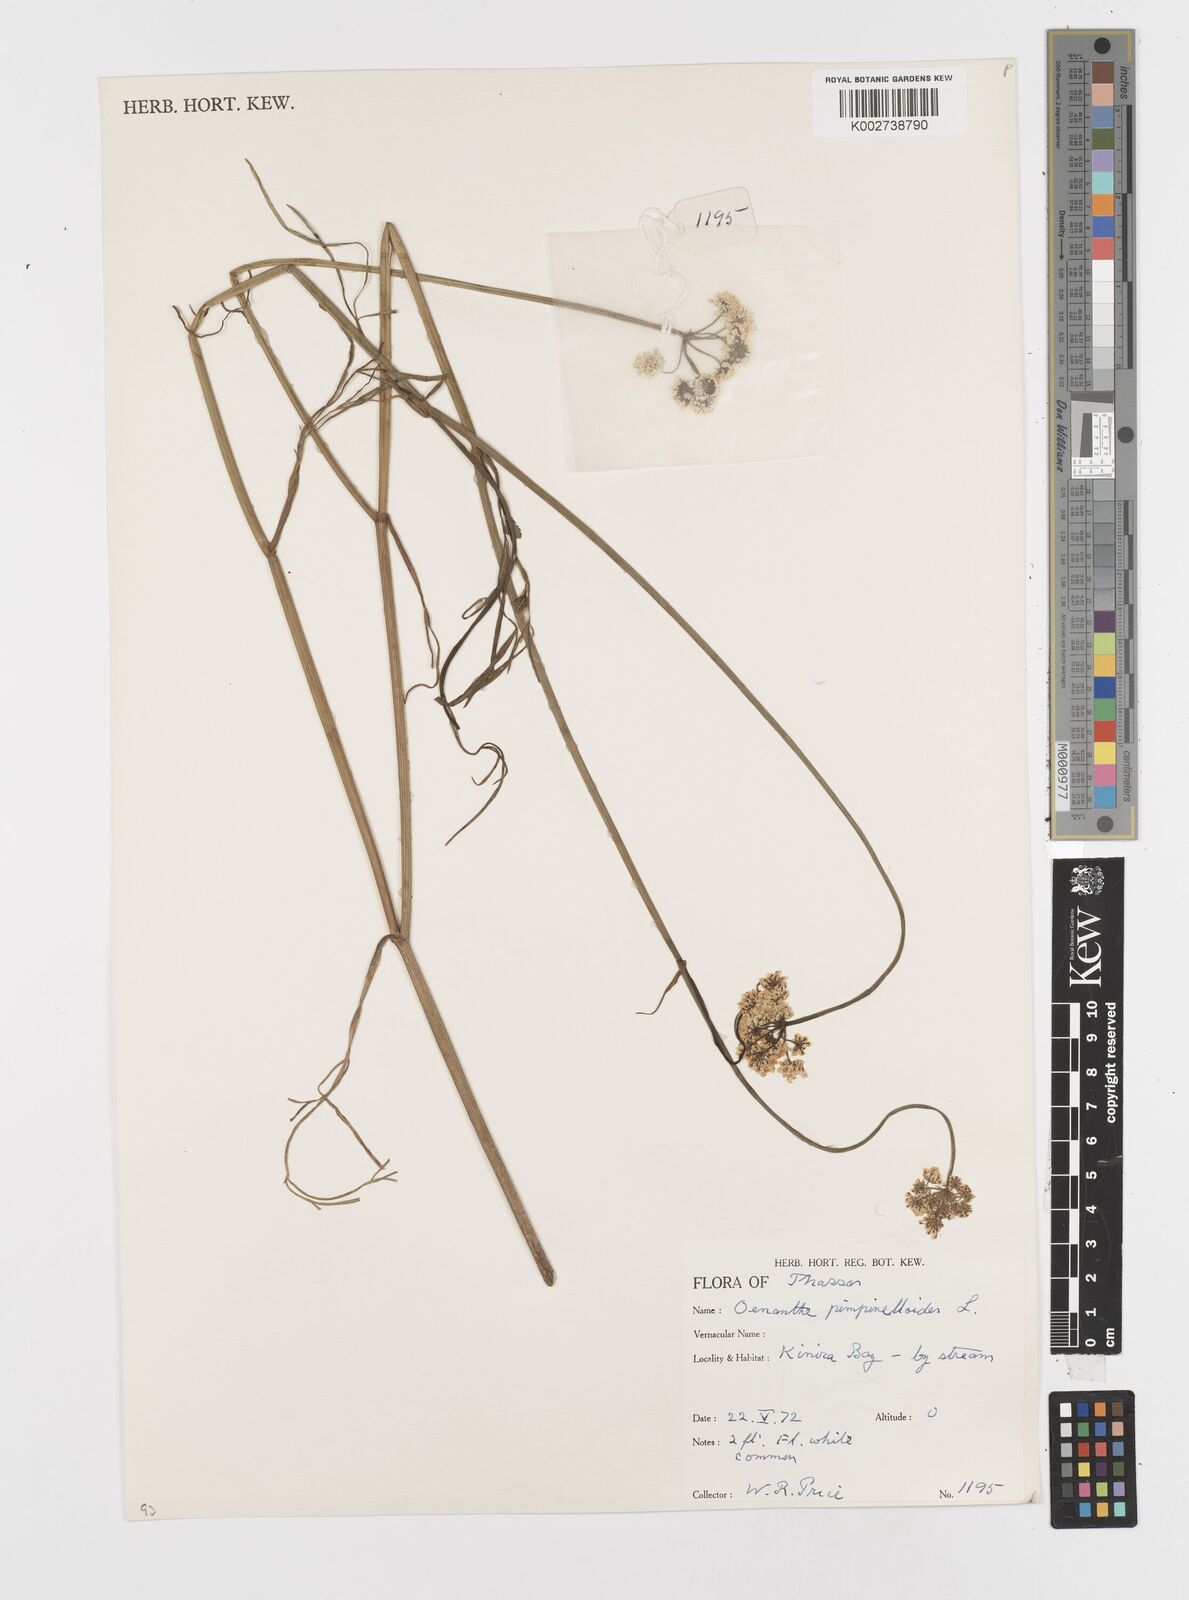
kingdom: Plantae
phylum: Tracheophyta
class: Magnoliopsida
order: Apiales
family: Apiaceae
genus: Oenanthe
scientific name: Oenanthe pimpinelloides
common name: Corky-fruited water-dropwort
